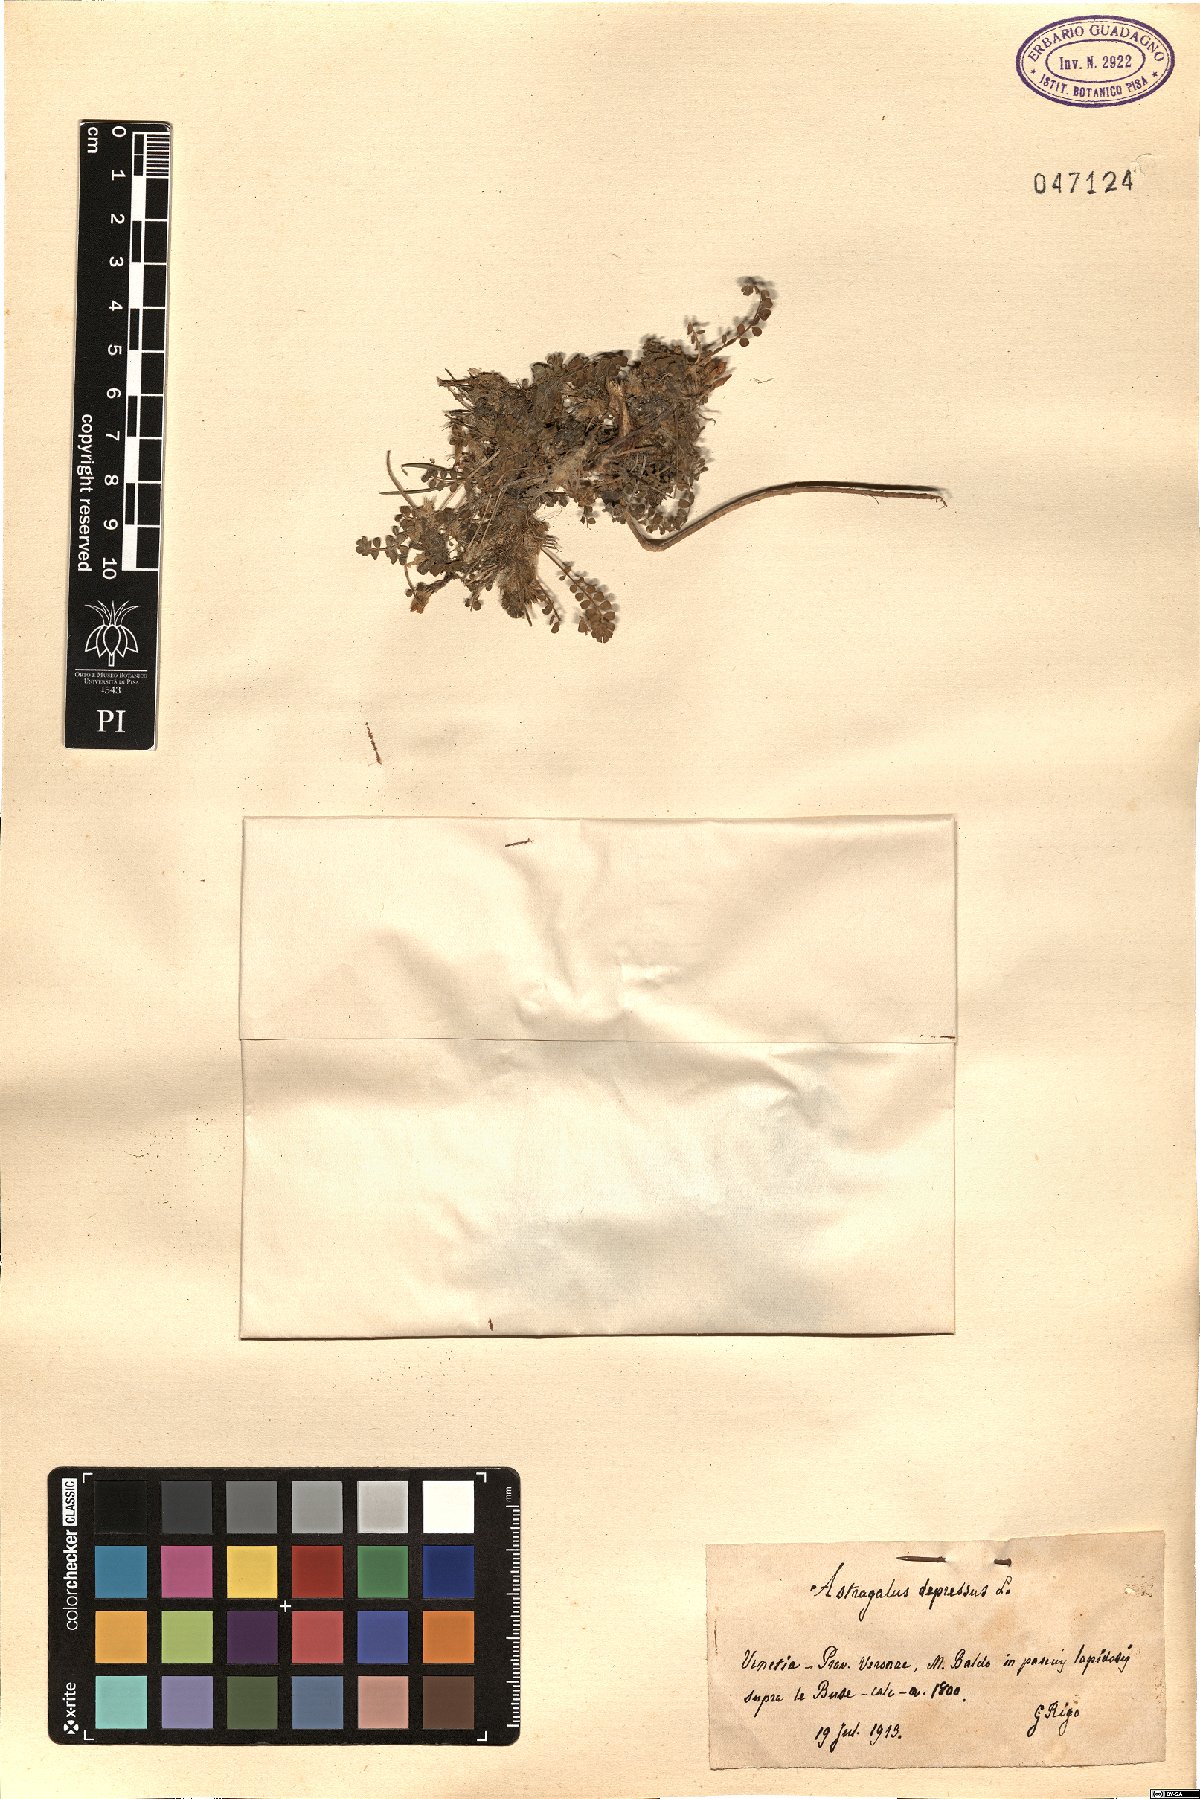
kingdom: Plantae
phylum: Tracheophyta
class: Magnoliopsida
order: Fabales
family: Fabaceae
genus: Astragalus
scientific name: Astragalus depressus
